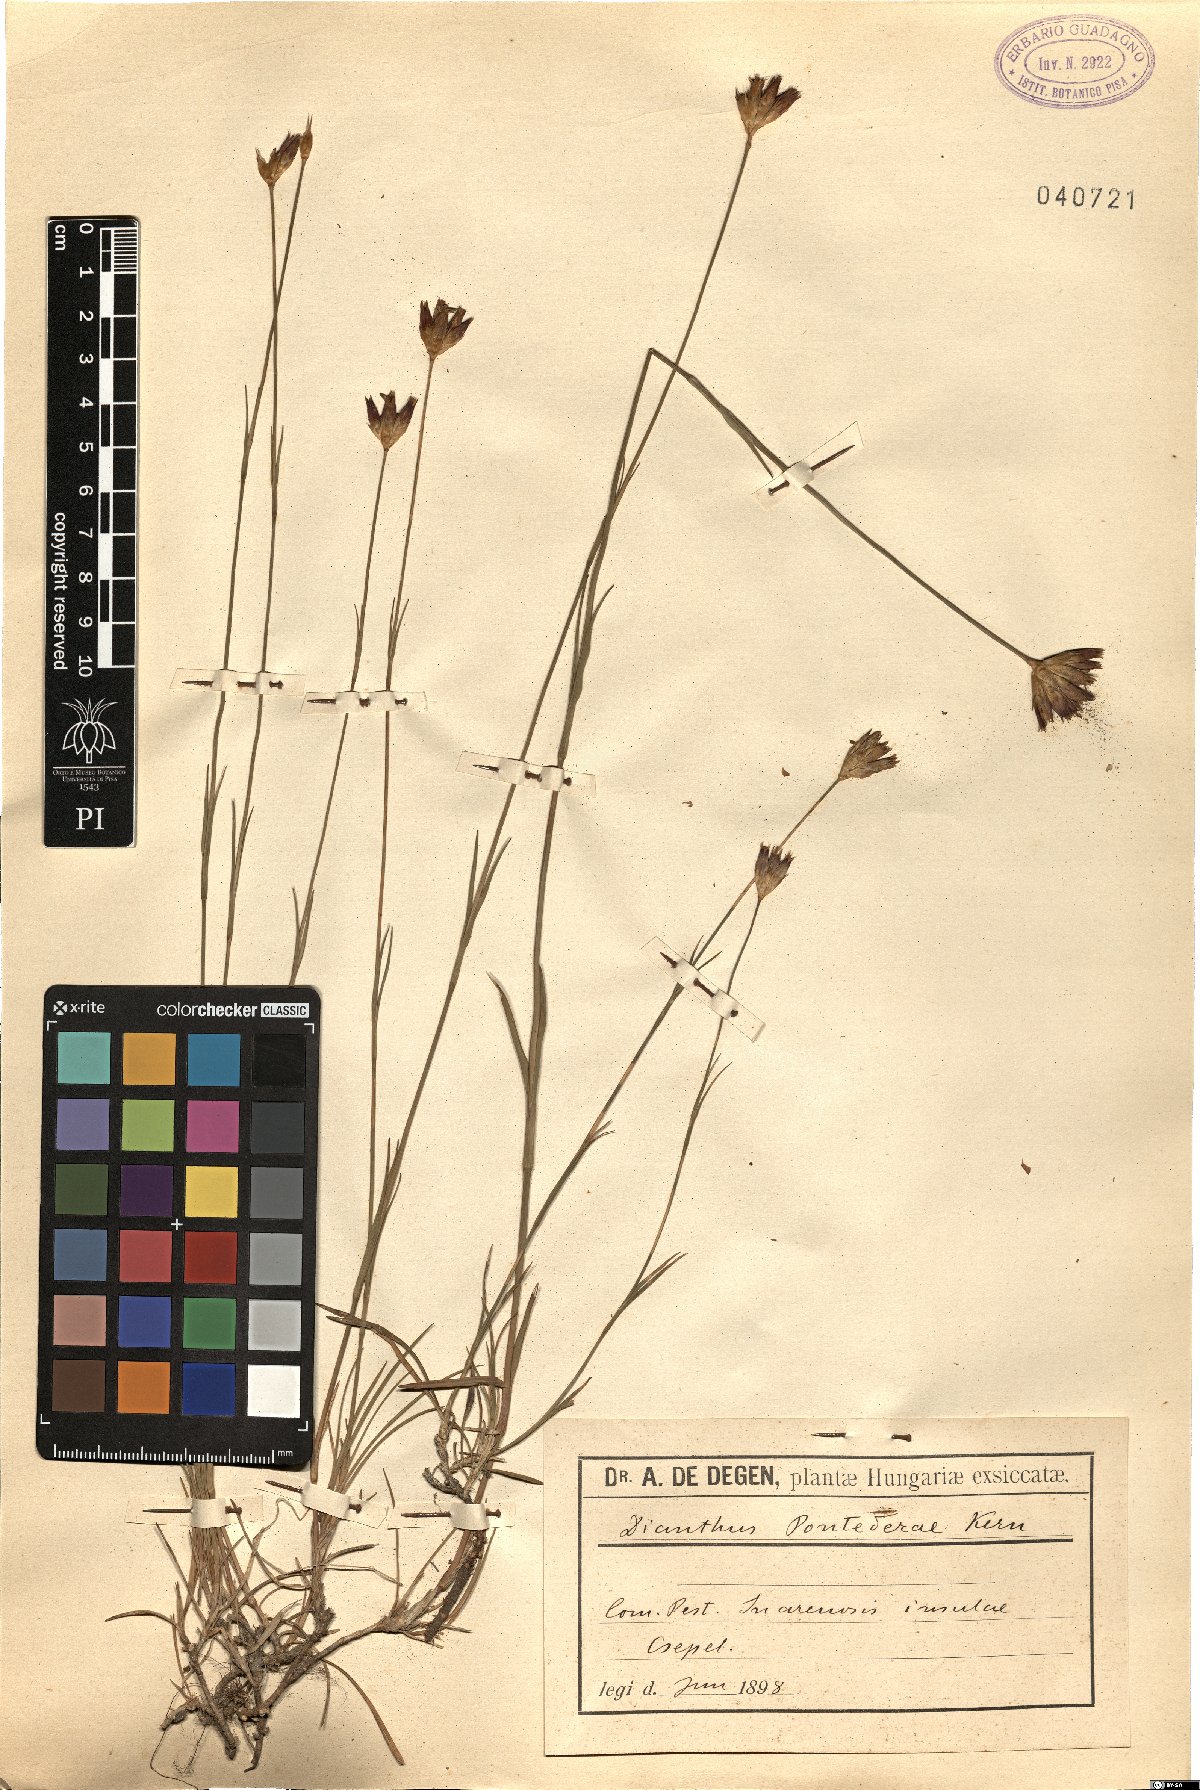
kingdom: Plantae
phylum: Tracheophyta
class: Magnoliopsida
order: Caryophyllales
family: Caryophyllaceae
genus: Dianthus
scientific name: Dianthus pontederae
